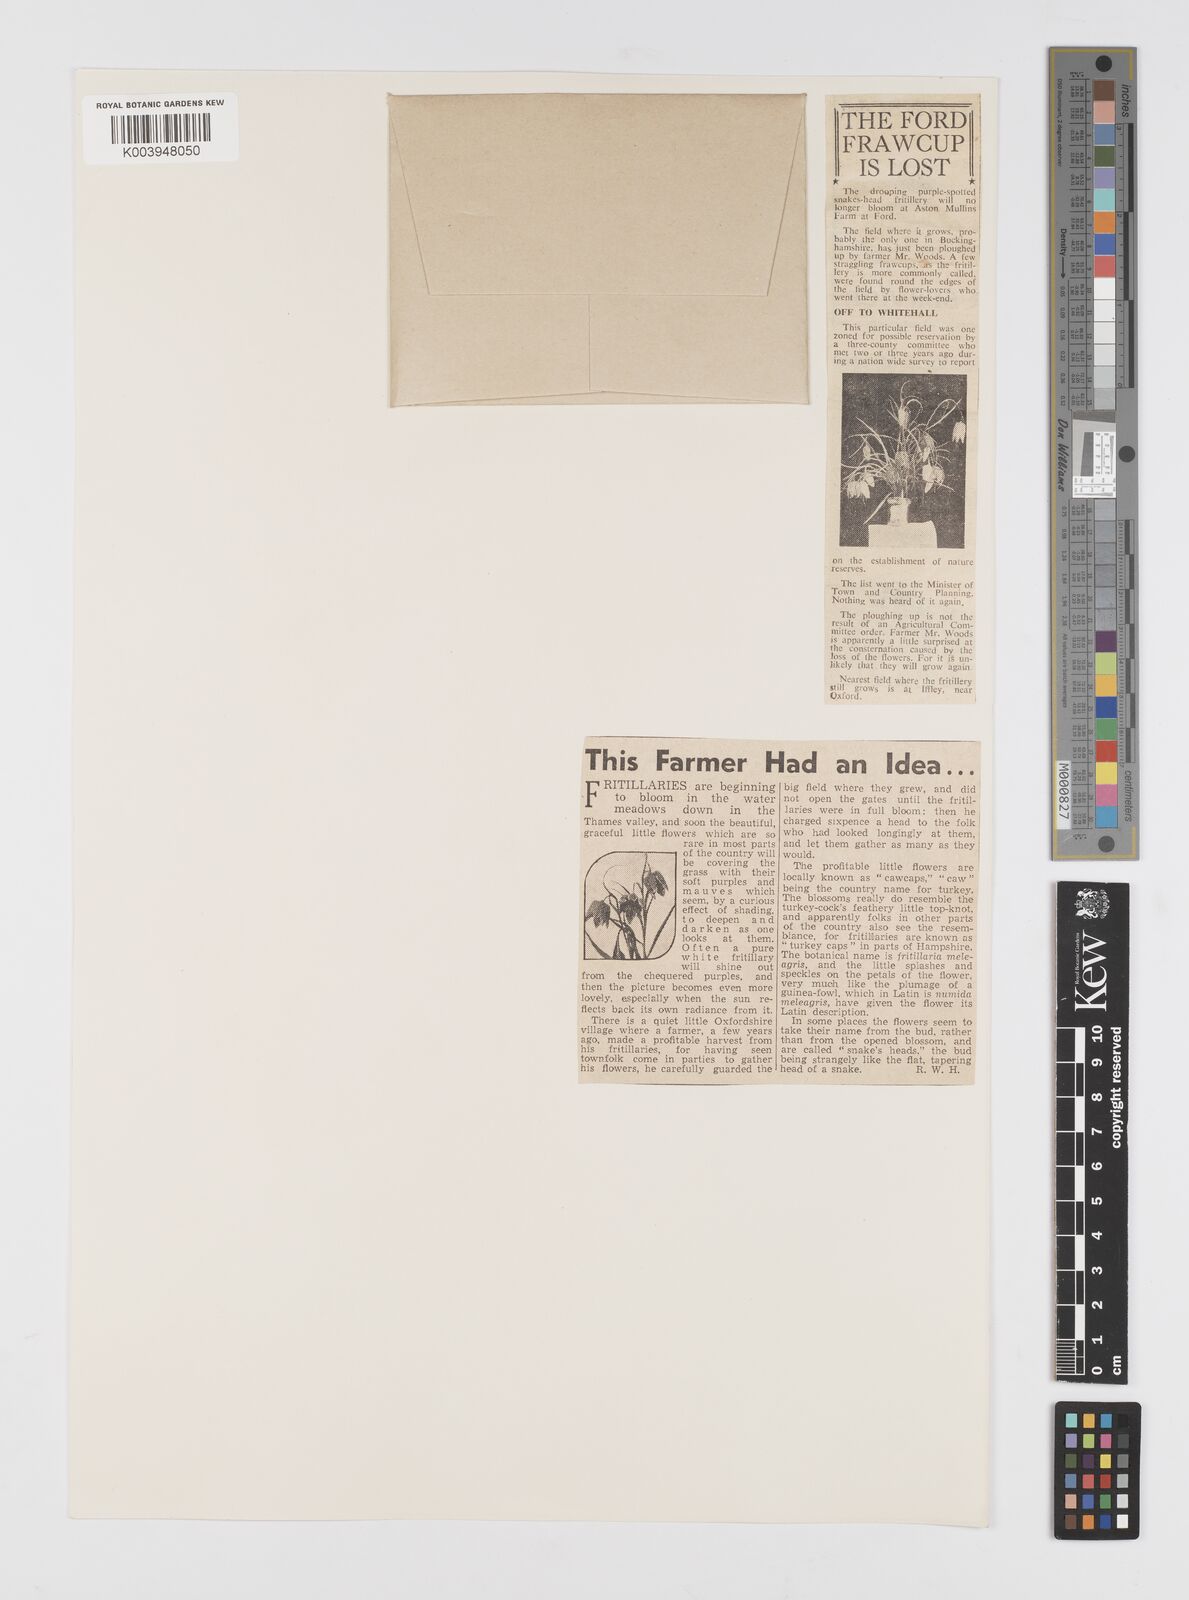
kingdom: Plantae
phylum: Tracheophyta
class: Liliopsida
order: Liliales
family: Liliaceae
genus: Fritillaria
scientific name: Fritillaria meleagris
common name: Fritillary
